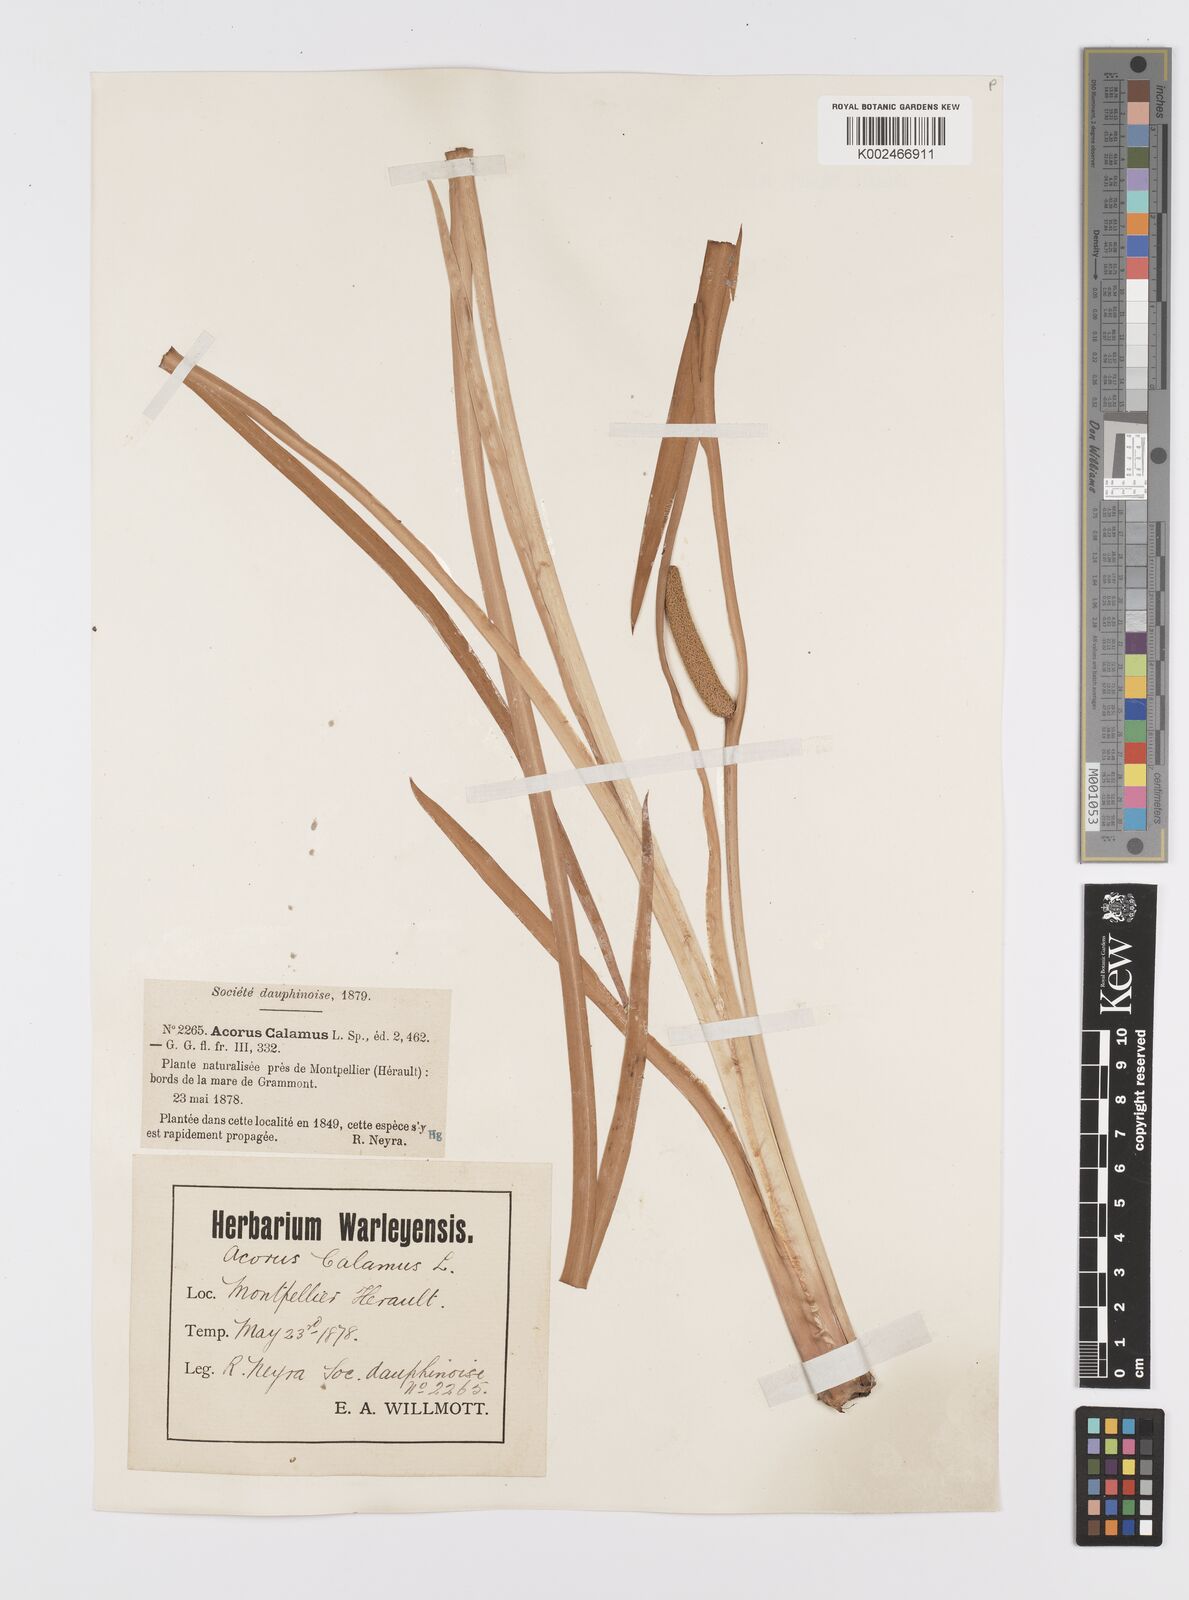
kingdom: Plantae
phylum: Tracheophyta
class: Liliopsida
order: Acorales
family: Acoraceae
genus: Acorus
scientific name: Acorus calamus
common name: Sweet-flag
